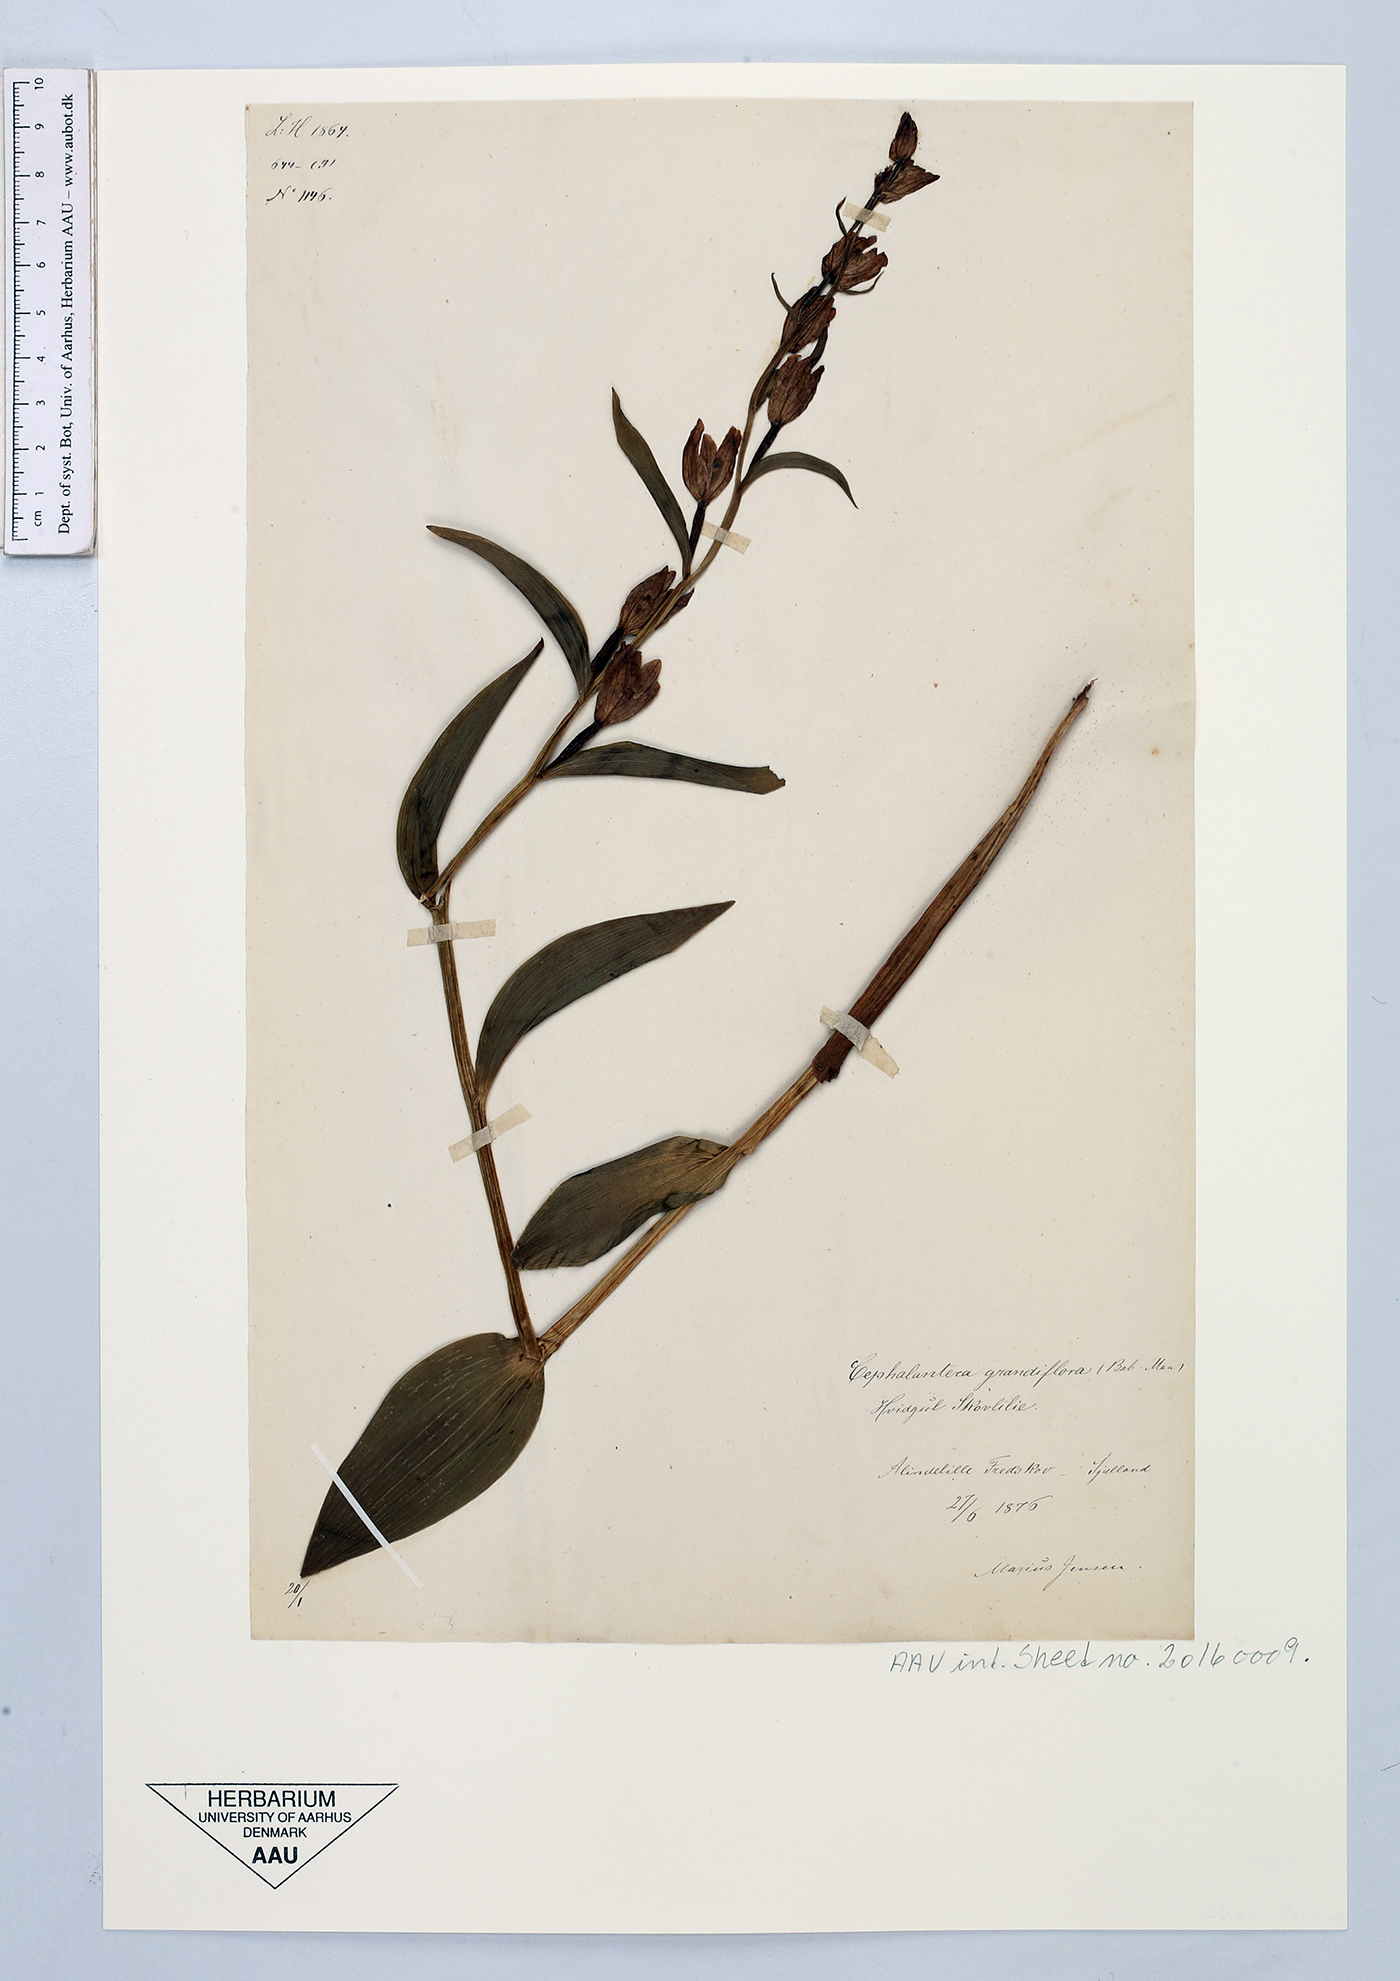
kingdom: Plantae
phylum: Tracheophyta
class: Liliopsida
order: Asparagales
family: Orchidaceae
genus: Cephalanthera
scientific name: Cephalanthera damasonium
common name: White helleborine
